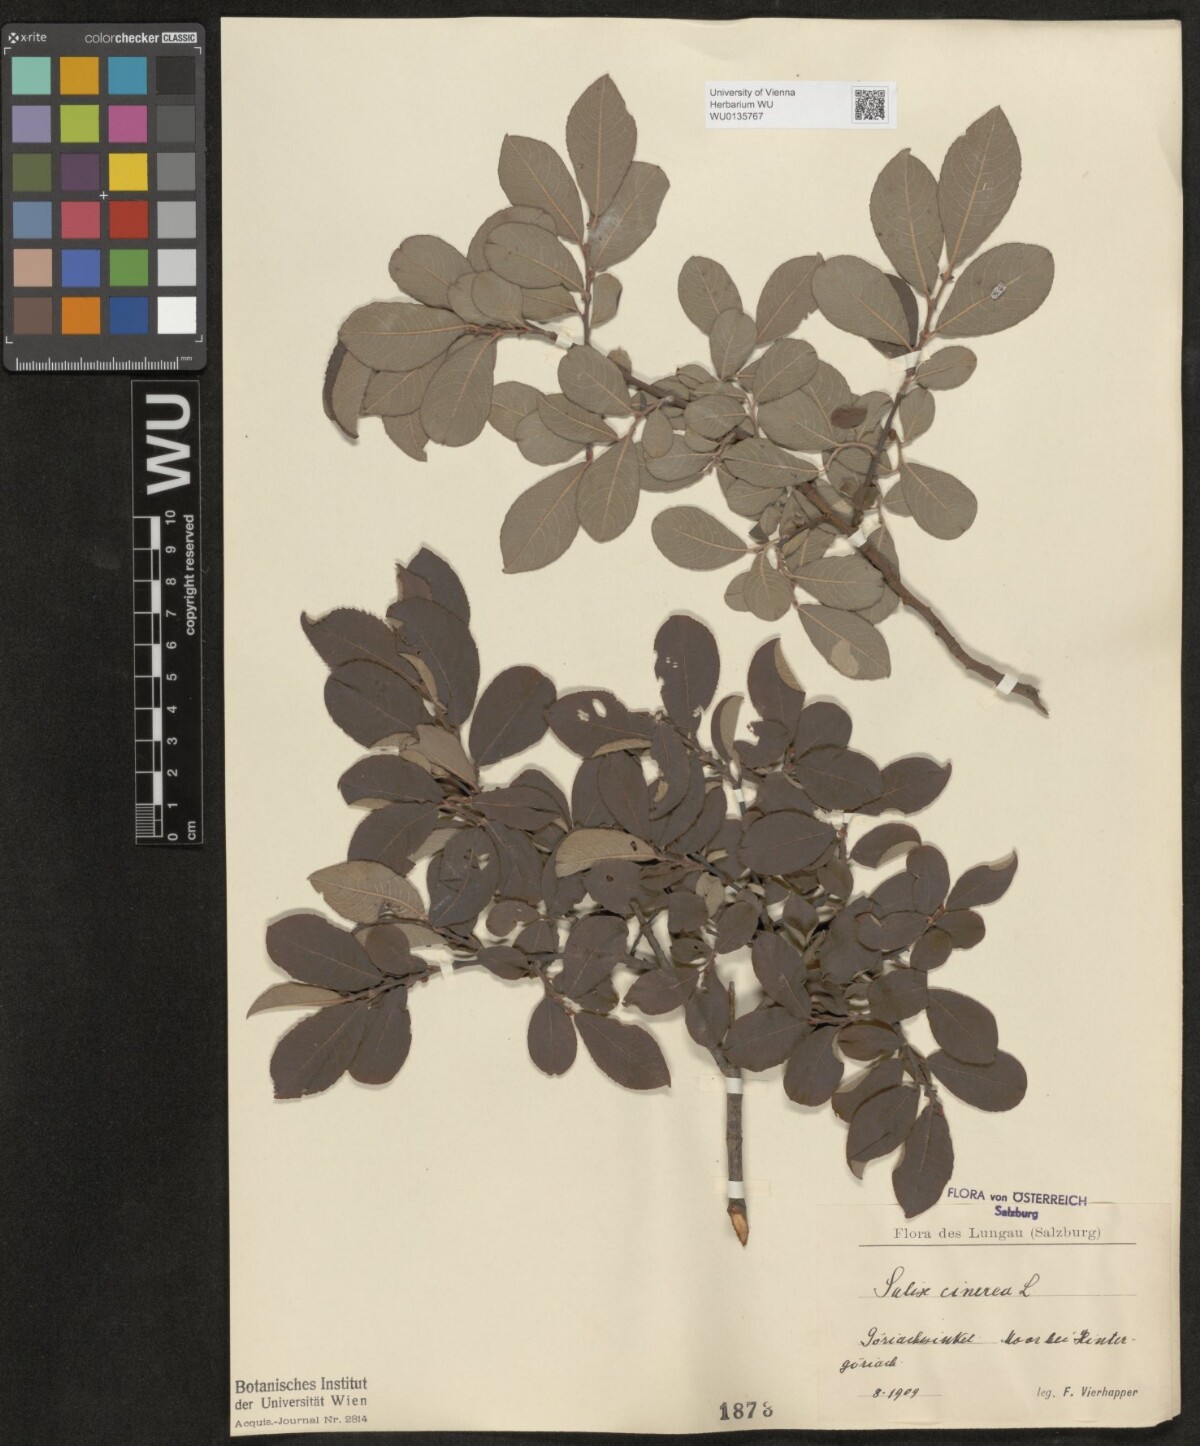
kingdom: Plantae
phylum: Tracheophyta
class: Magnoliopsida
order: Malpighiales
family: Salicaceae
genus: Salix
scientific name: Salix cinerea
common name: Common sallow
